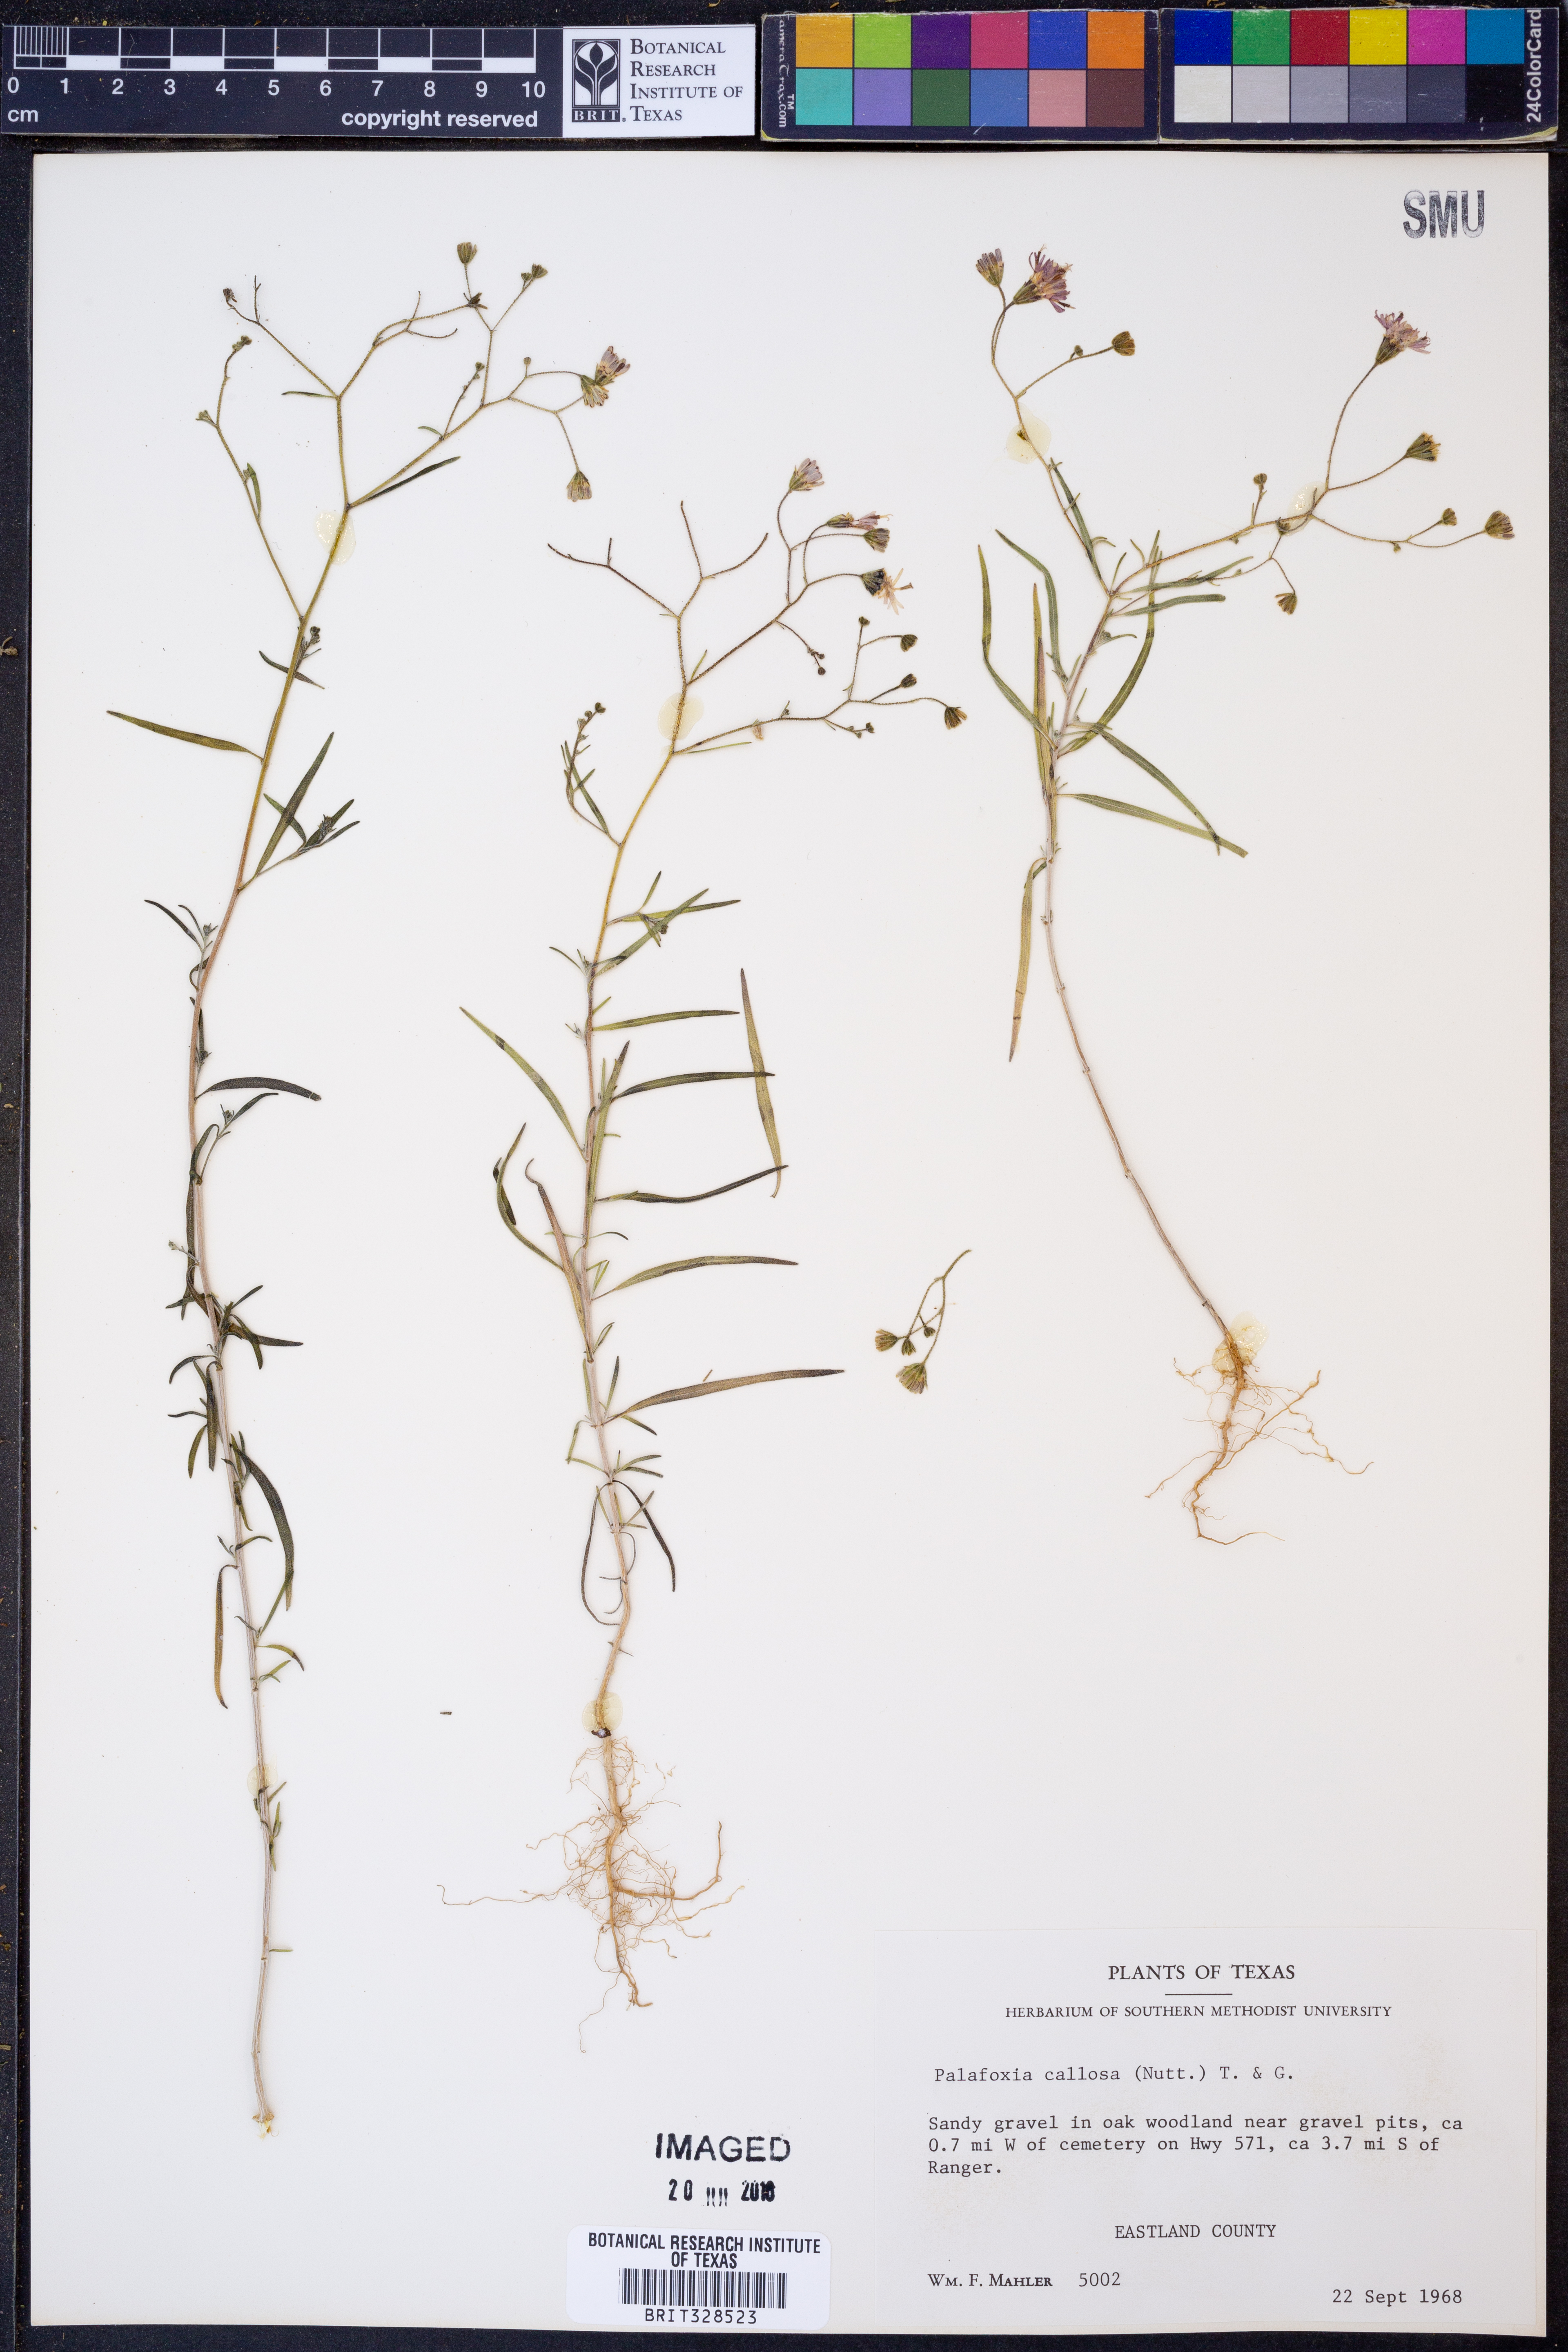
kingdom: Plantae
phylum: Tracheophyta
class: Magnoliopsida
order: Asterales
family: Asteraceae
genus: Palafoxia
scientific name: Palafoxia callosa
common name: Small palafox
